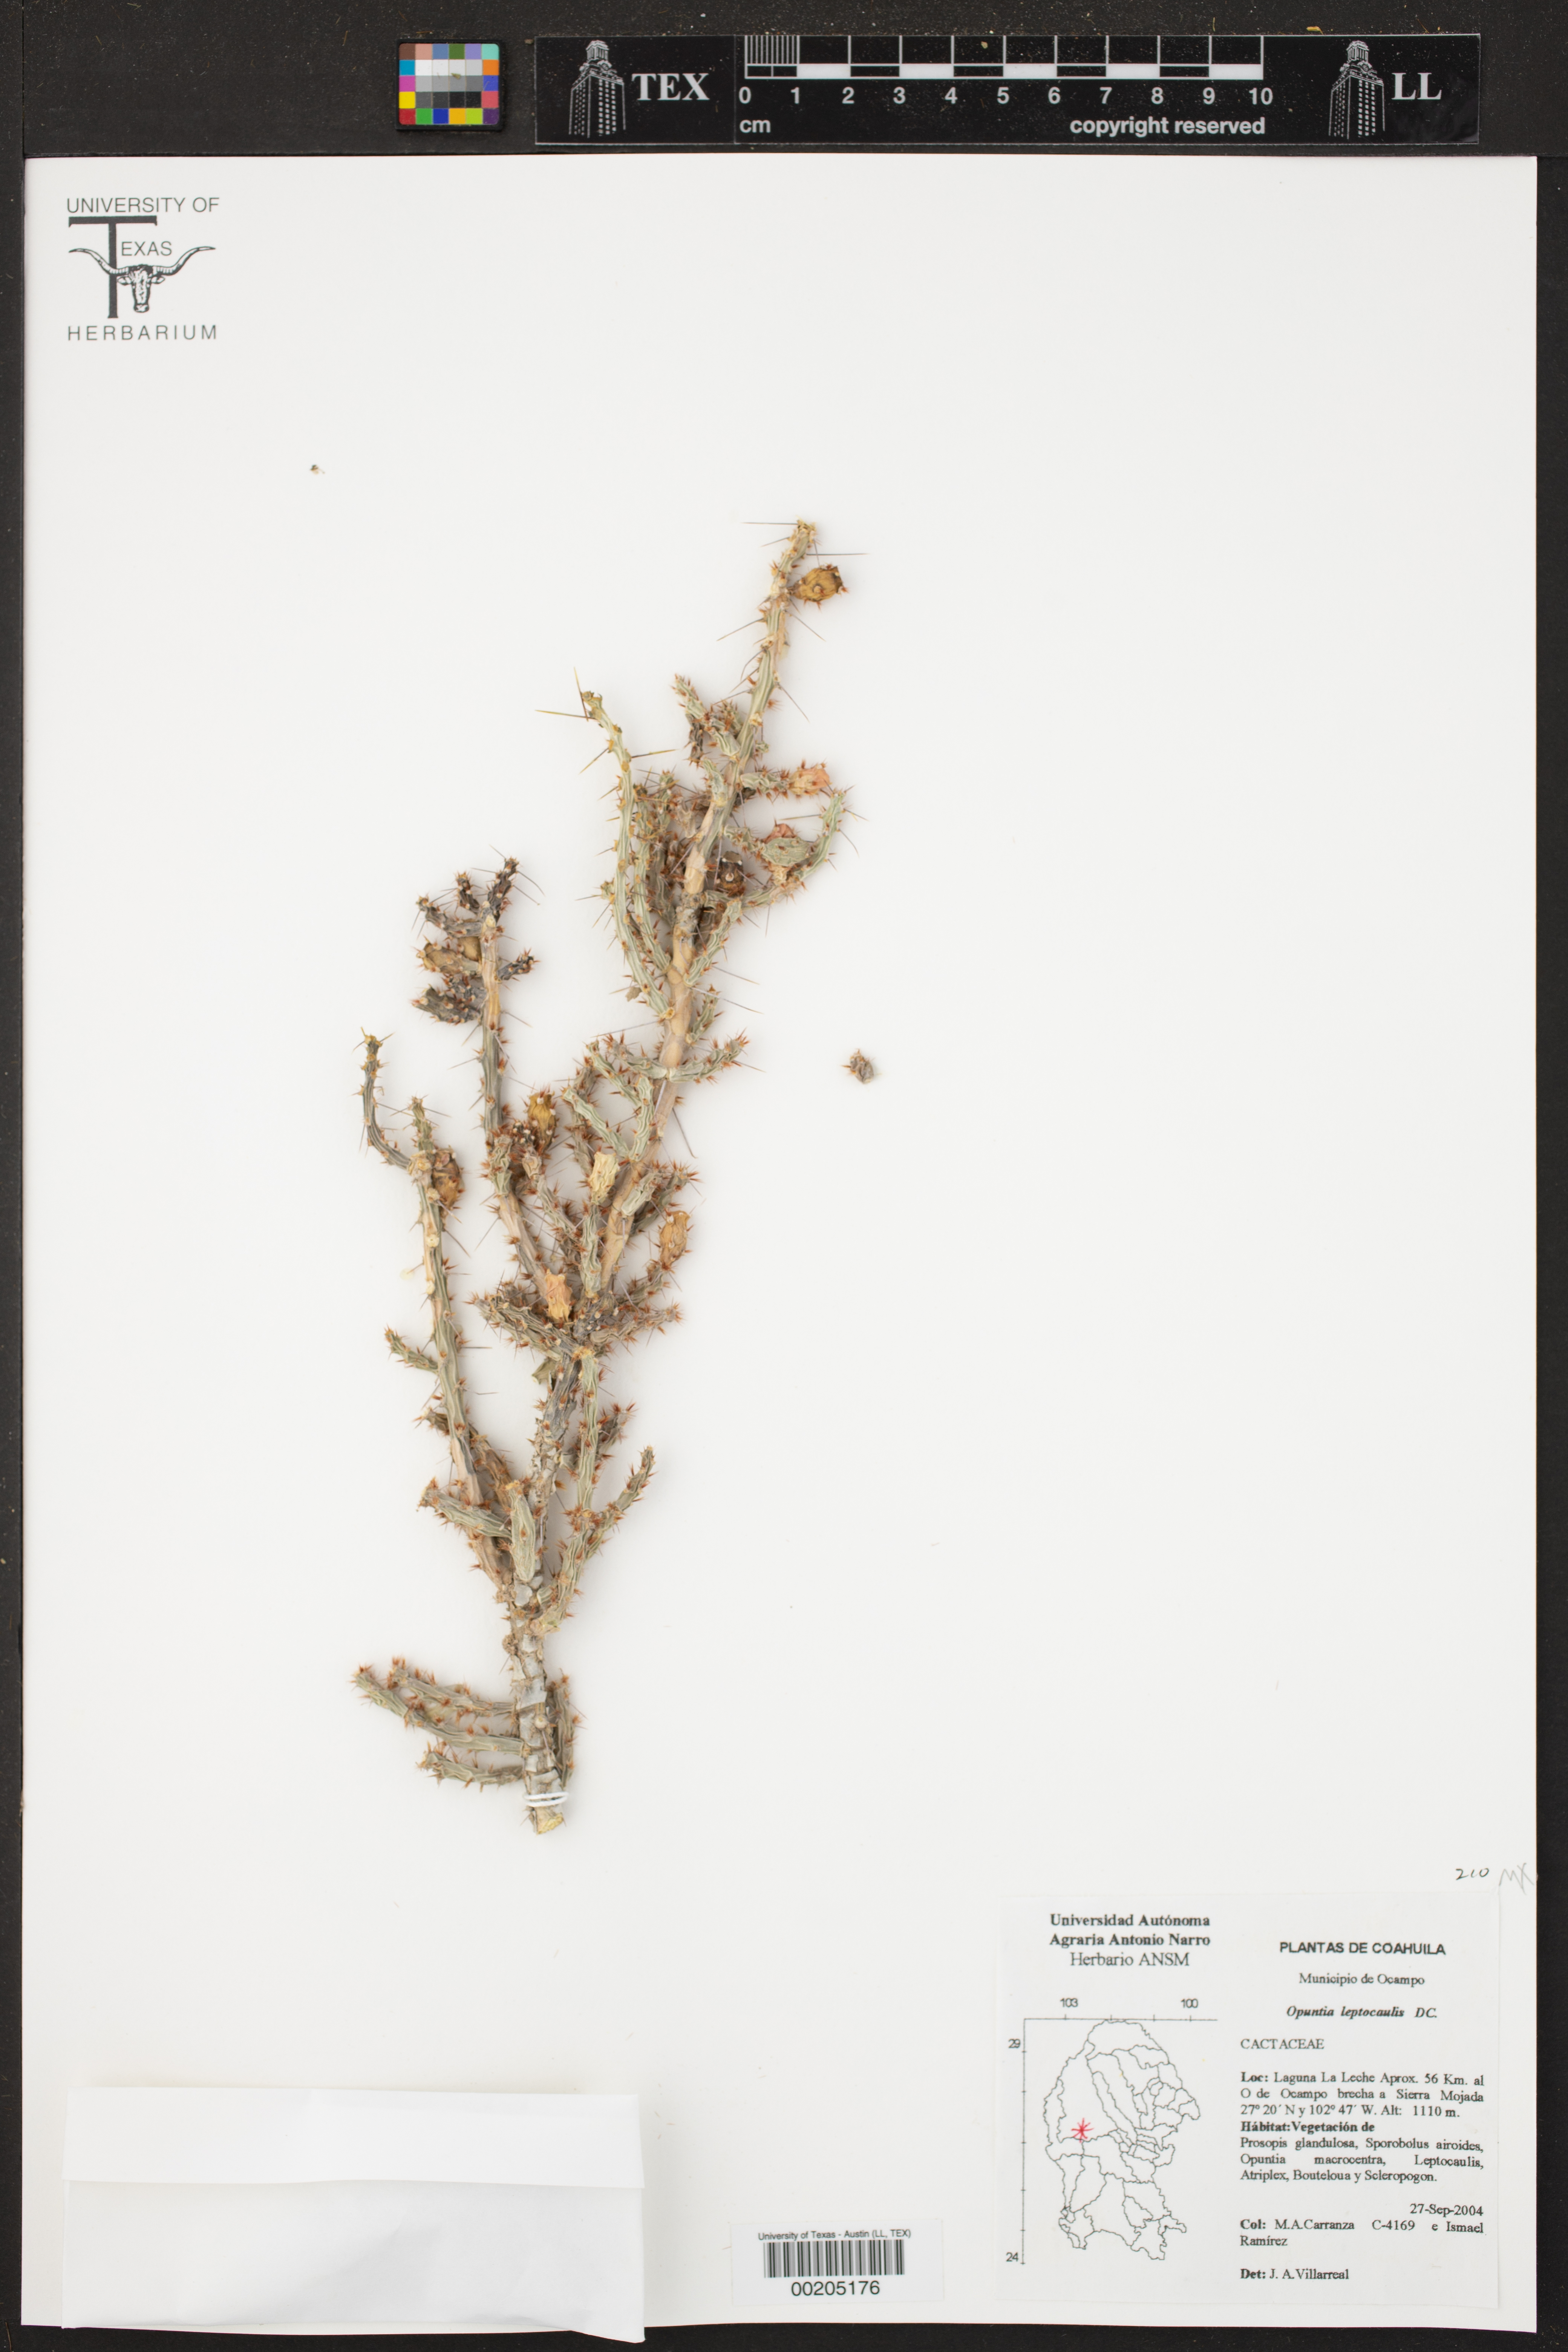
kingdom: Plantae
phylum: Tracheophyta
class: Magnoliopsida
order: Caryophyllales
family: Cactaceae
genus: Cylindropuntia
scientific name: Cylindropuntia leptocaulis
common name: Christmas cactus
